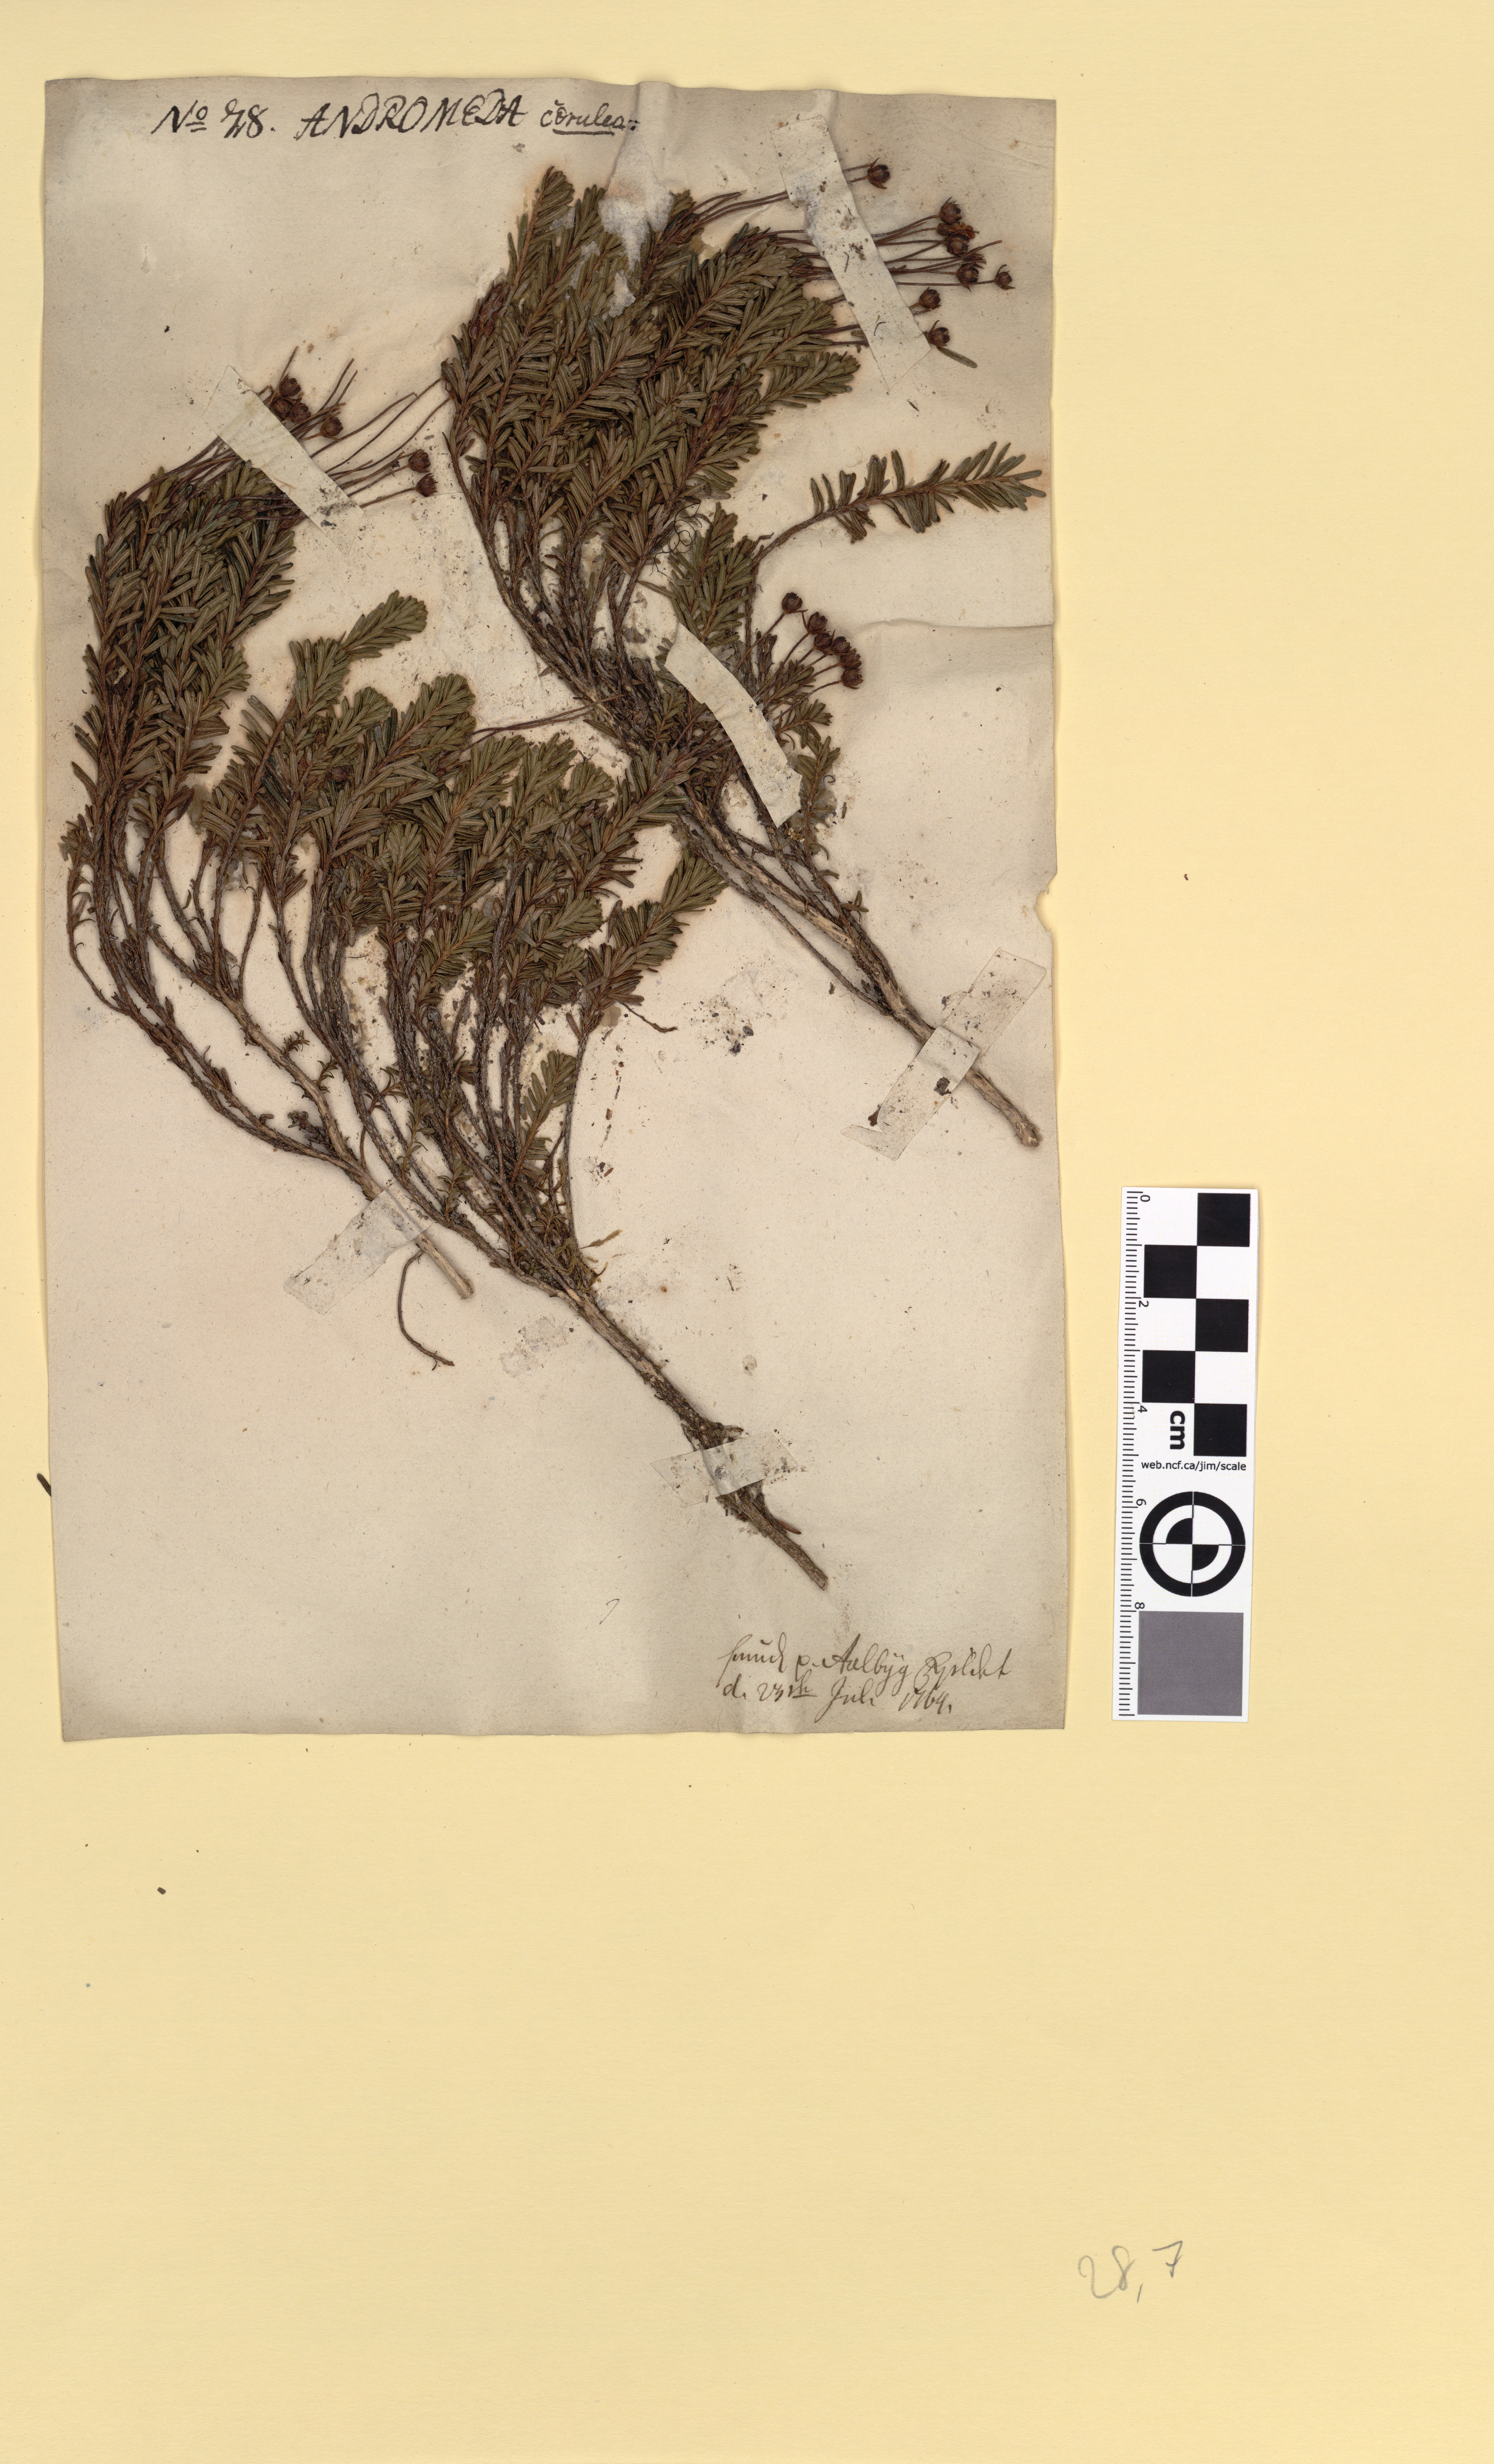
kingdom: Plantae
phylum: Tracheophyta
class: Magnoliopsida
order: Ericales
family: Ericaceae
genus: Phyllodoce
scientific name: Phyllodoce caerulea
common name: Blue heath
